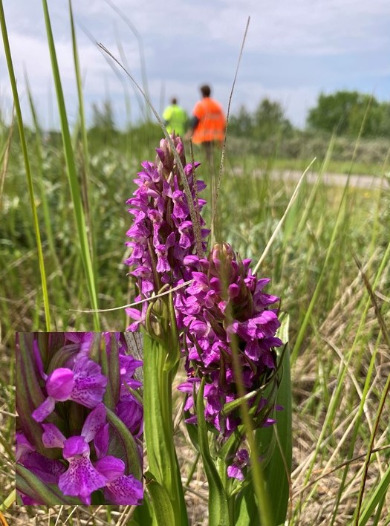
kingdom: Plantae
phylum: Tracheophyta
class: Liliopsida
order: Asparagales
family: Orchidaceae
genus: Dactylorhiza
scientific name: Dactylorhiza majalis
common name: Maj-gøgeurt
